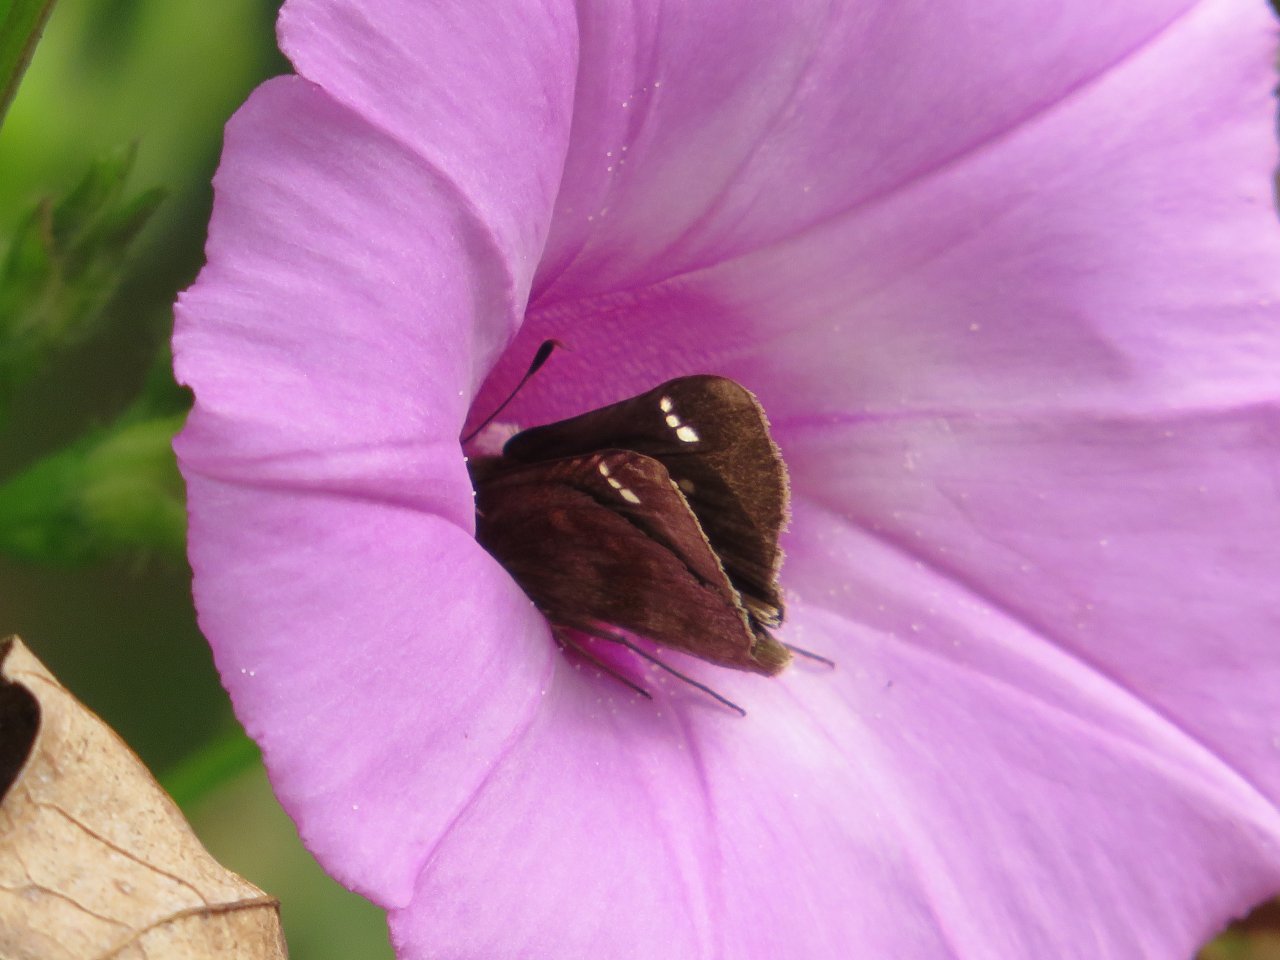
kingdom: Animalia
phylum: Arthropoda
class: Insecta
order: Lepidoptera
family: Hesperiidae
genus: Lerema
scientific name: Lerema accius
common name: Clouded Skipper
